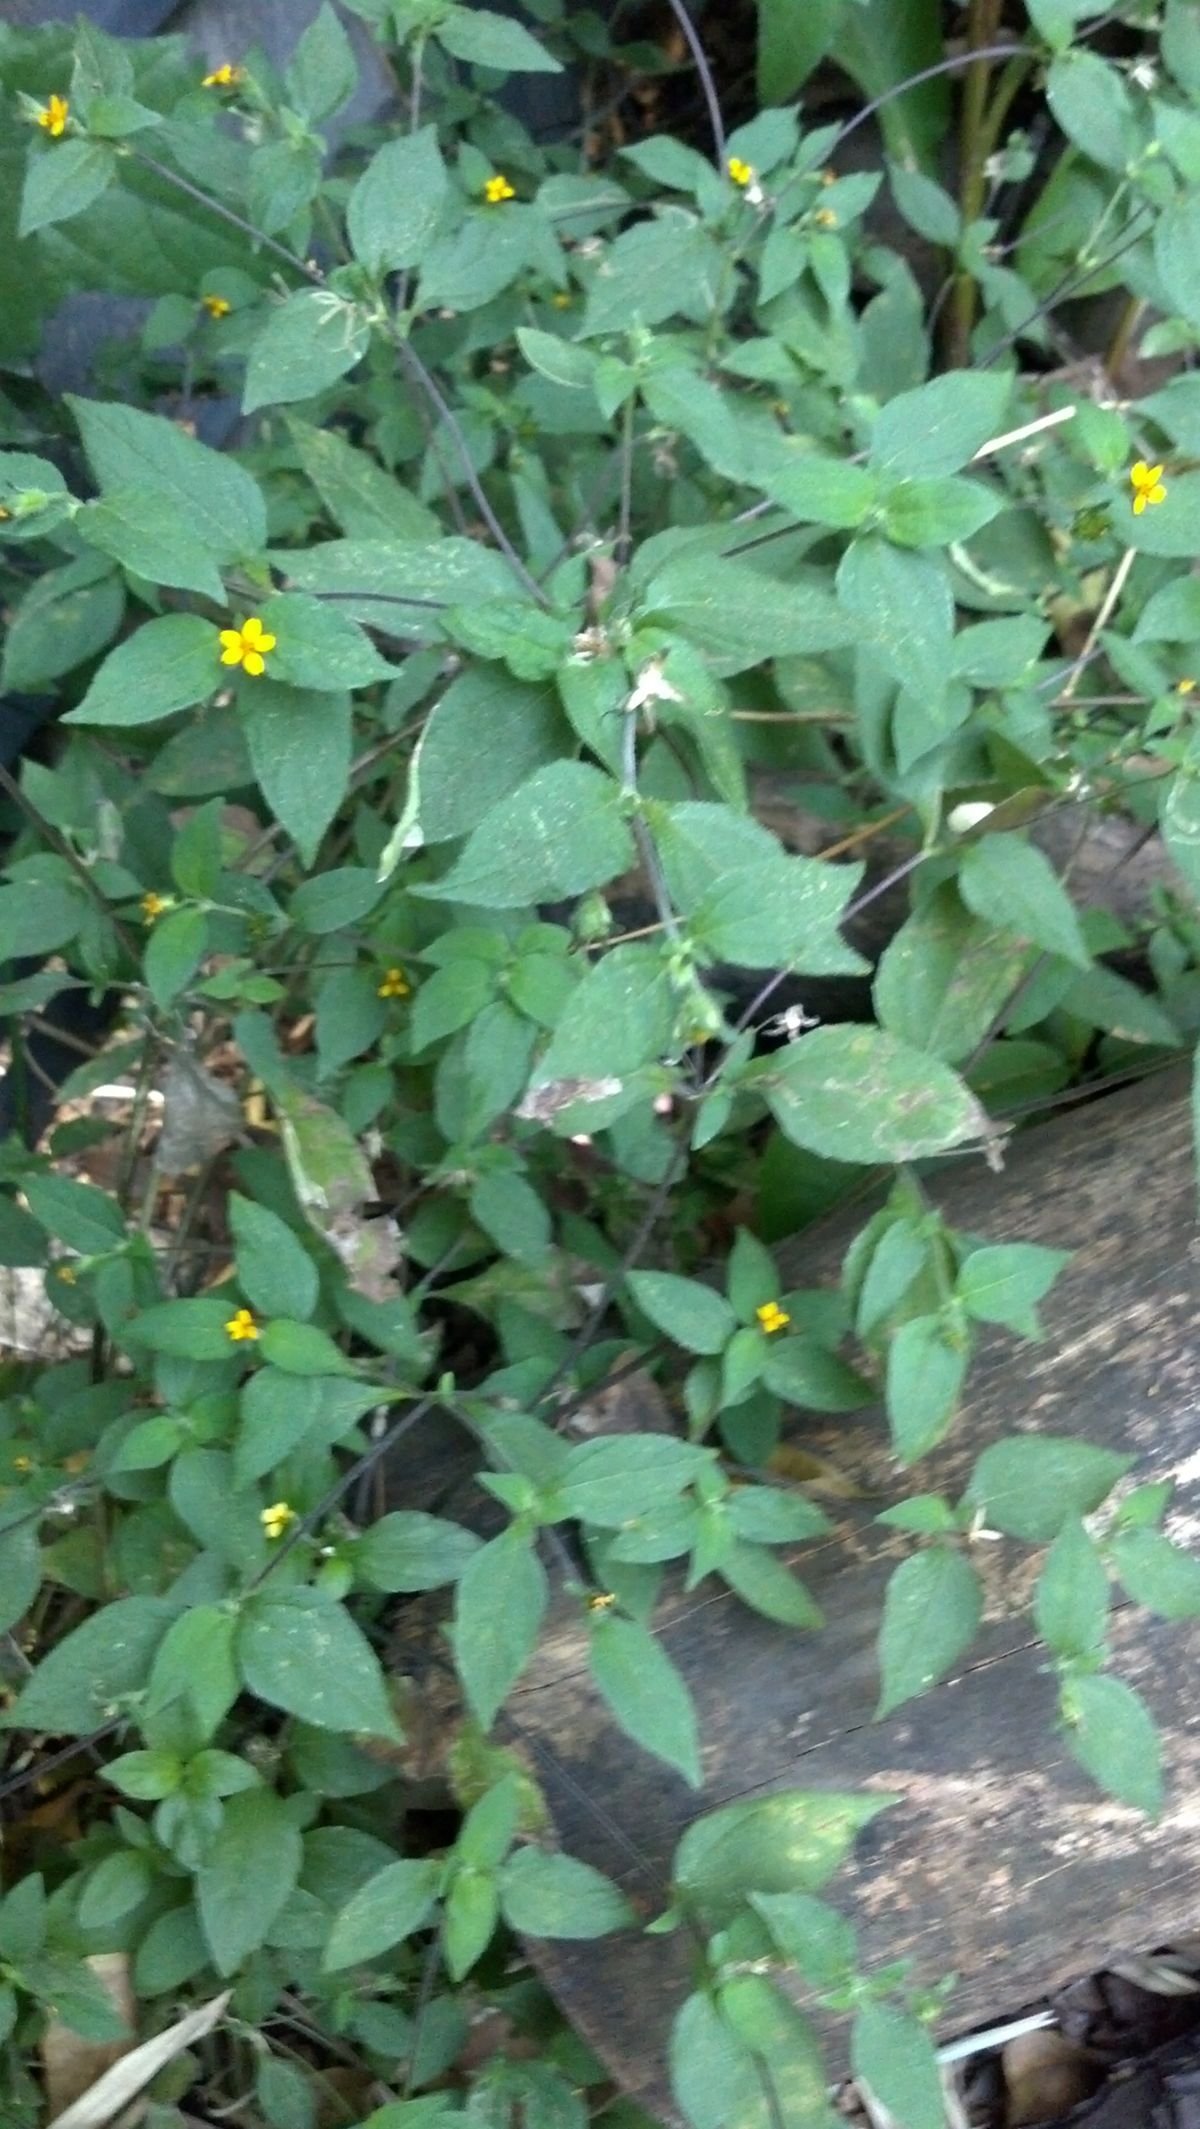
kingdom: Plantae
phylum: Tracheophyta
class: Magnoliopsida
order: Asterales
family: Asteraceae
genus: Baltimora
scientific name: Baltimora recta
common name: Beautyhead
